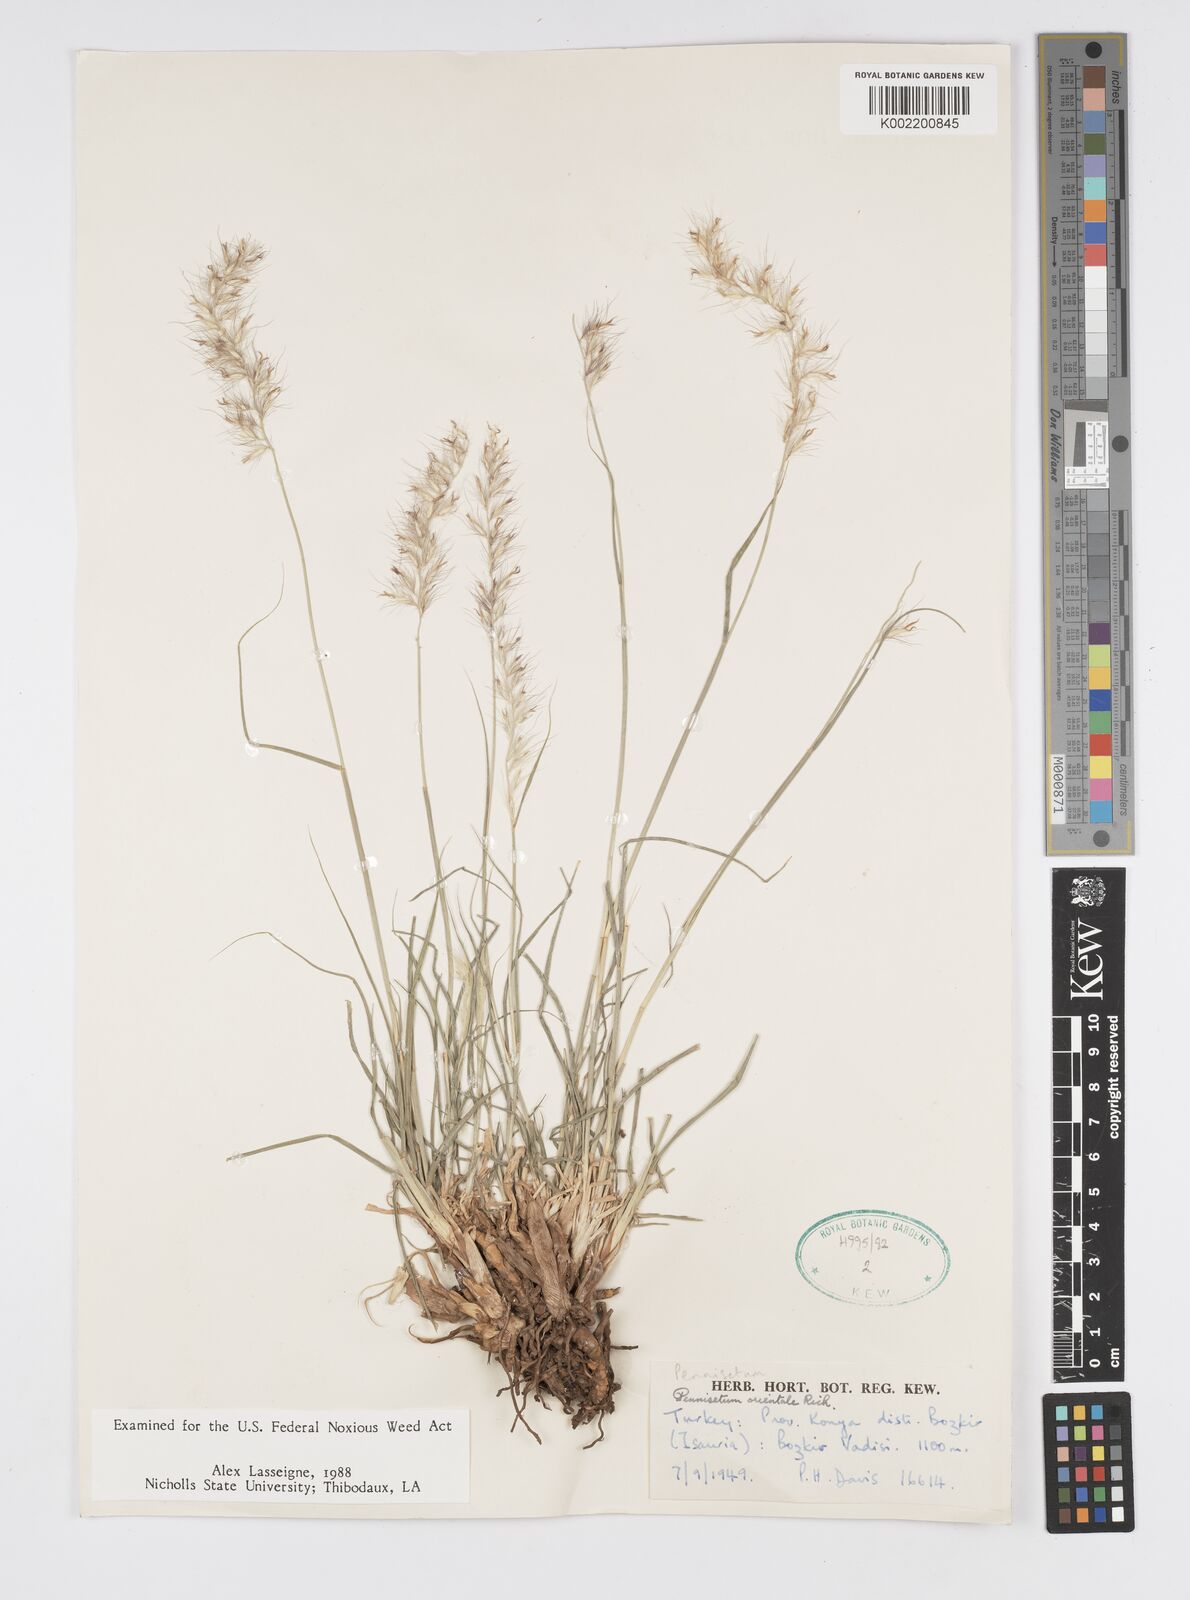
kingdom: Plantae
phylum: Tracheophyta
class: Liliopsida
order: Poales
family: Poaceae
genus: Cenchrus
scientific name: Cenchrus orientalis
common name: Oriental fountain grass
